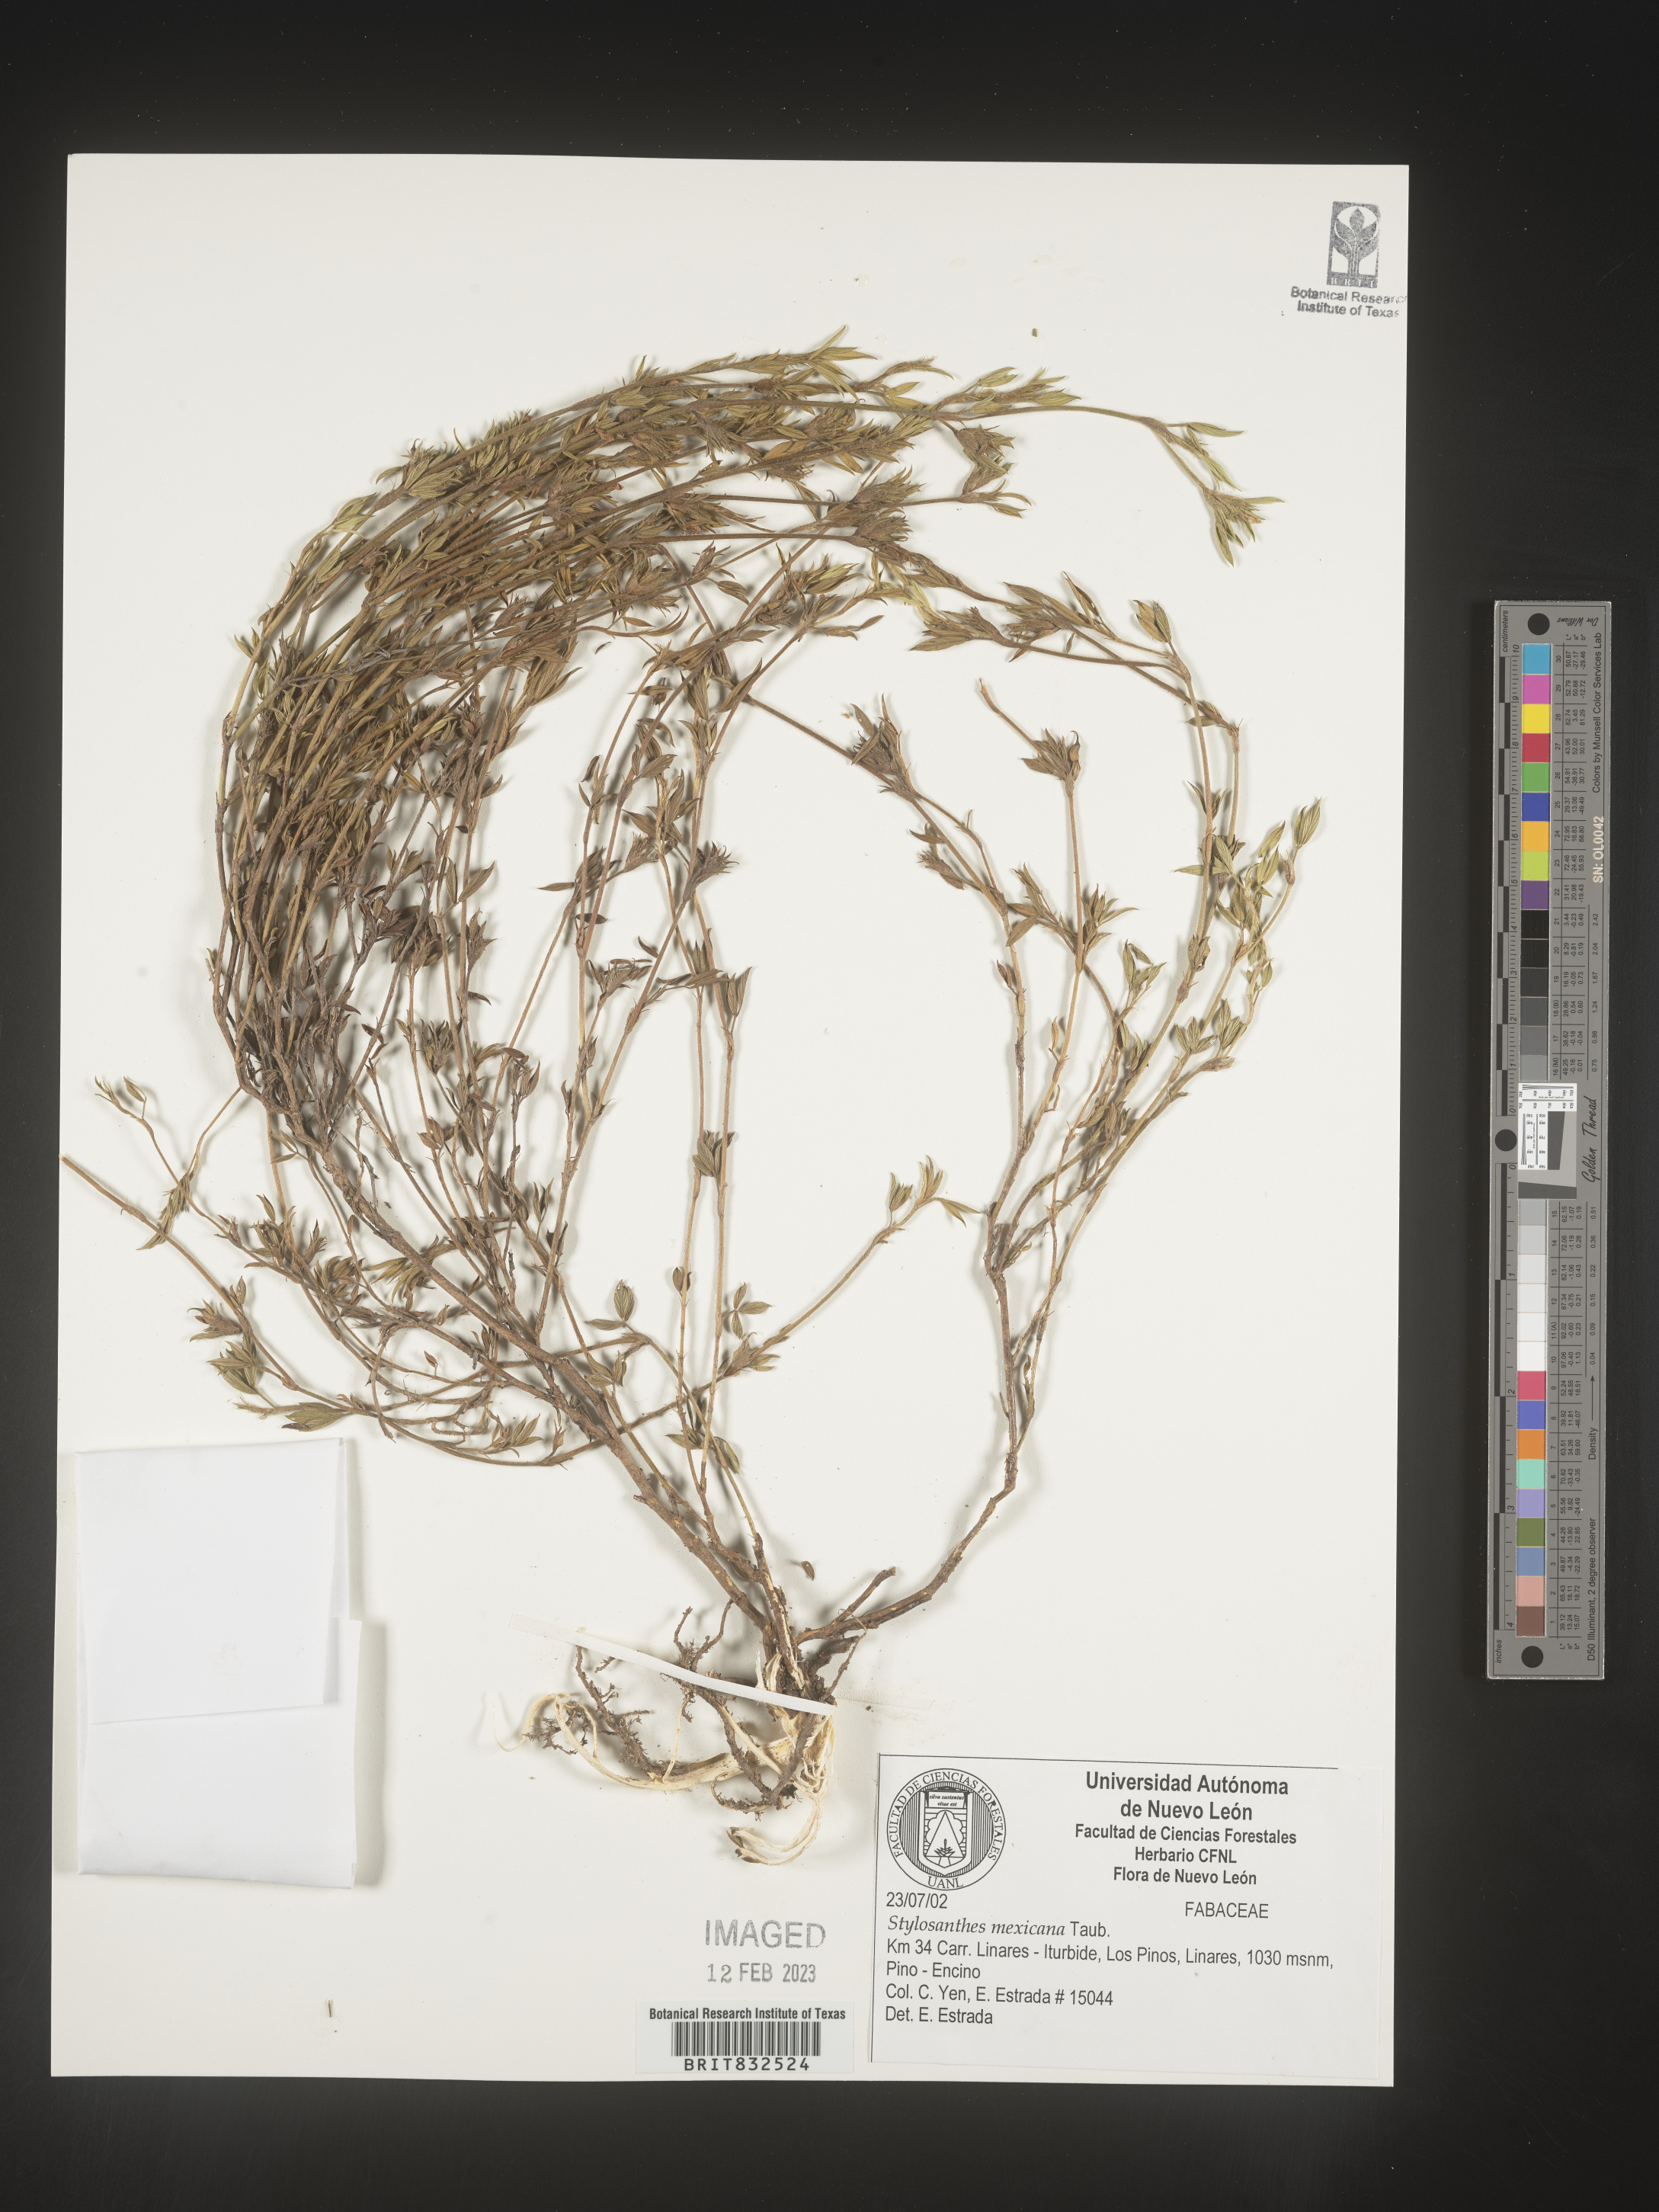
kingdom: Plantae
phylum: Tracheophyta
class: Magnoliopsida
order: Fabales
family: Fabaceae
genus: Stylosanthes
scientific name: Stylosanthes
